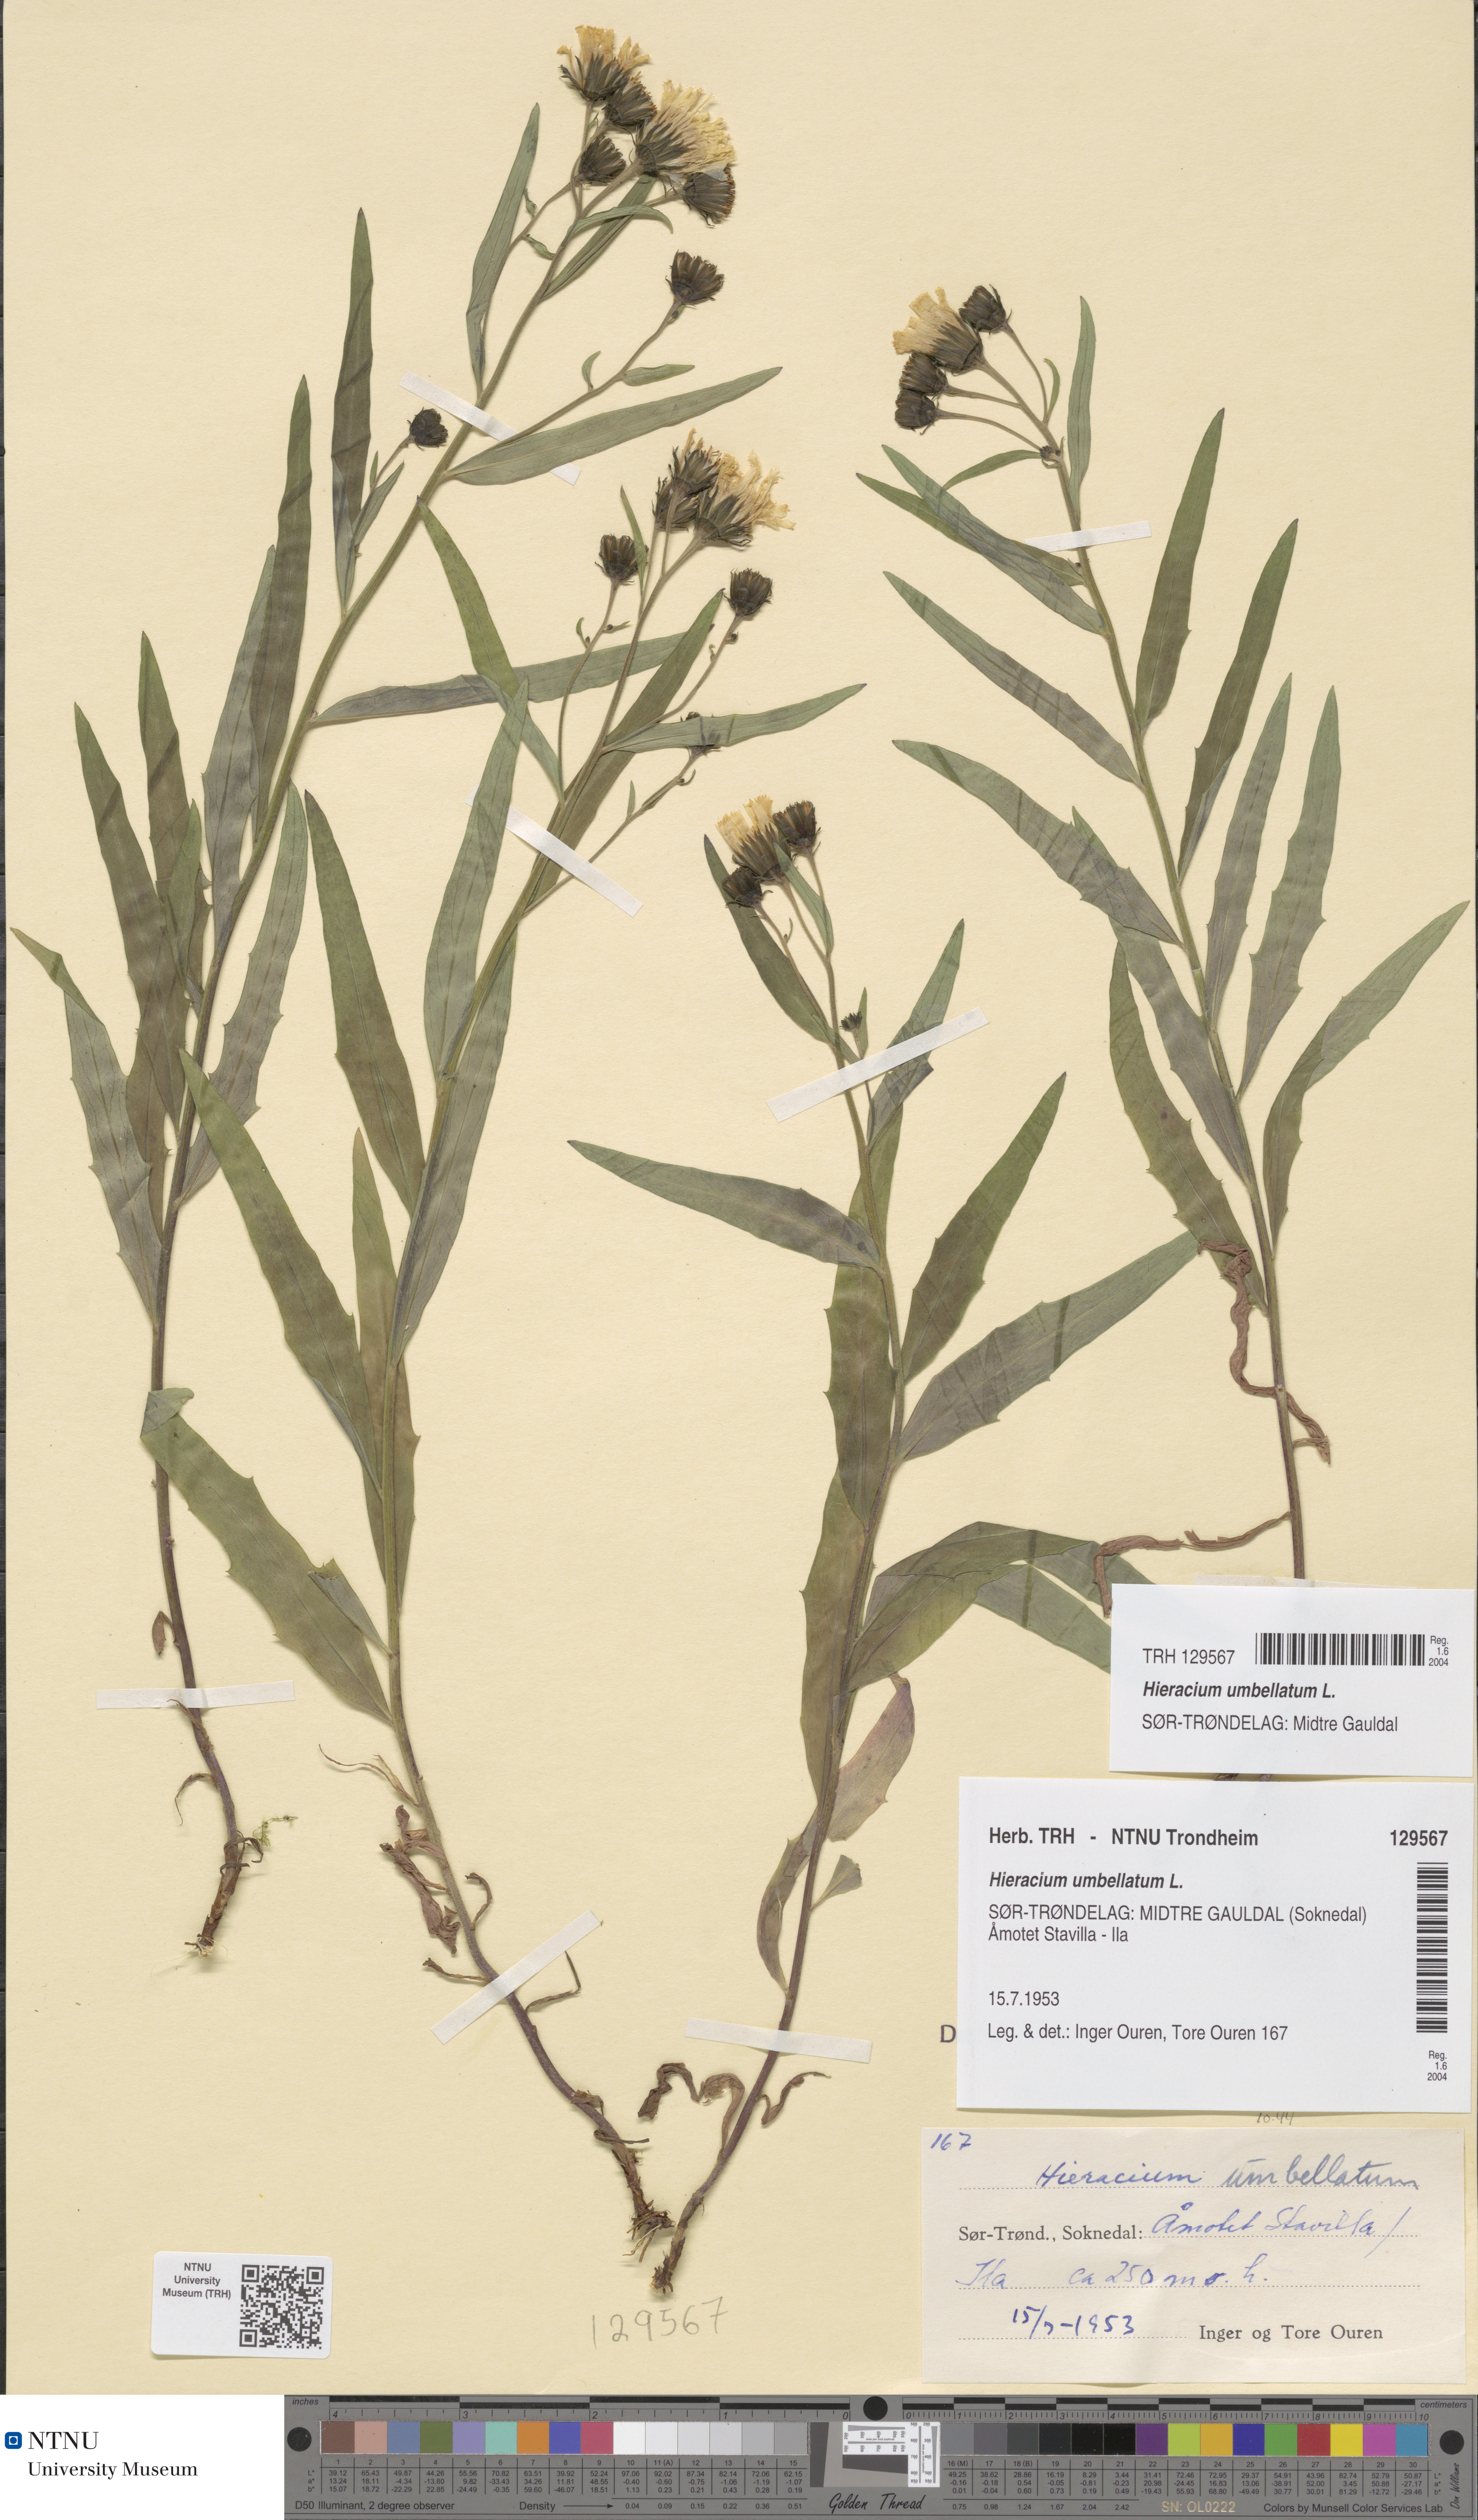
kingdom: Plantae
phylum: Tracheophyta
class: Magnoliopsida
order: Asterales
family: Asteraceae
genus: Hieracium
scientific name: Hieracium umbellatum
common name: Northern hawkweed
